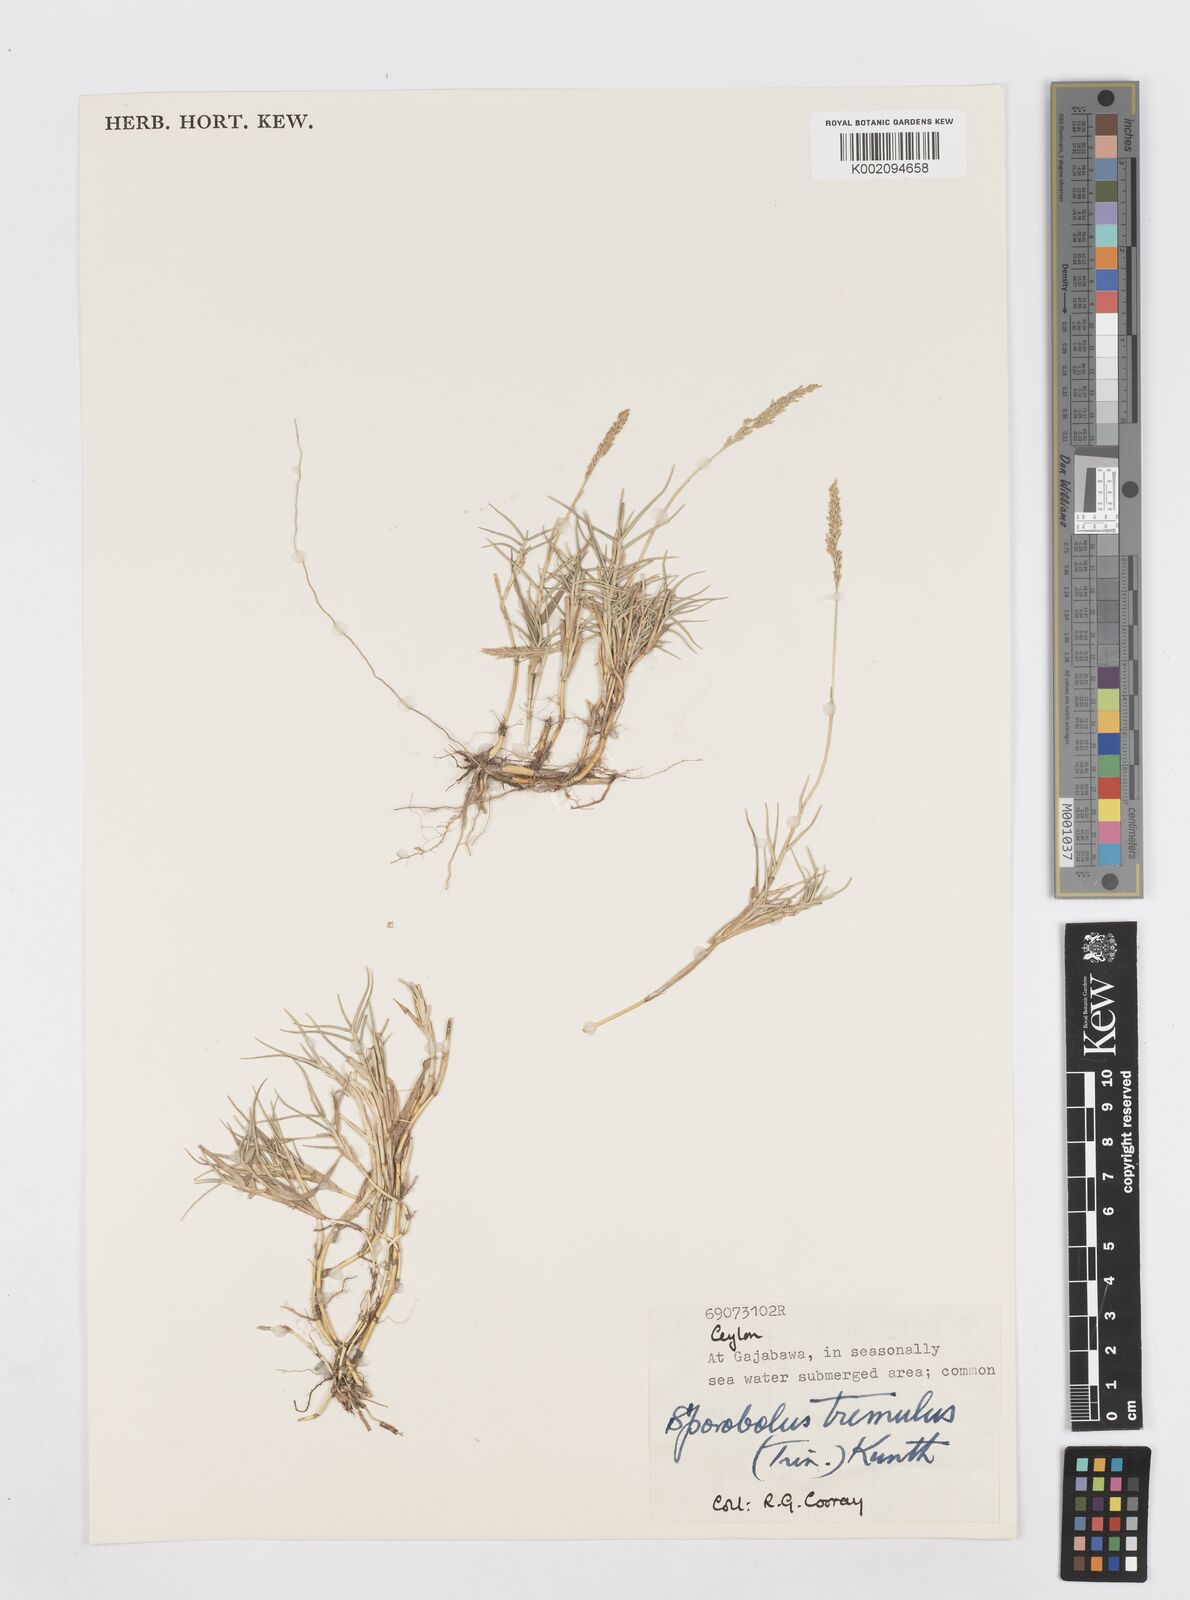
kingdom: Plantae
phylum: Tracheophyta
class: Liliopsida
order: Poales
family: Poaceae
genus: Sporobolus
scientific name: Sporobolus virginicus
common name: Beach dropseed
